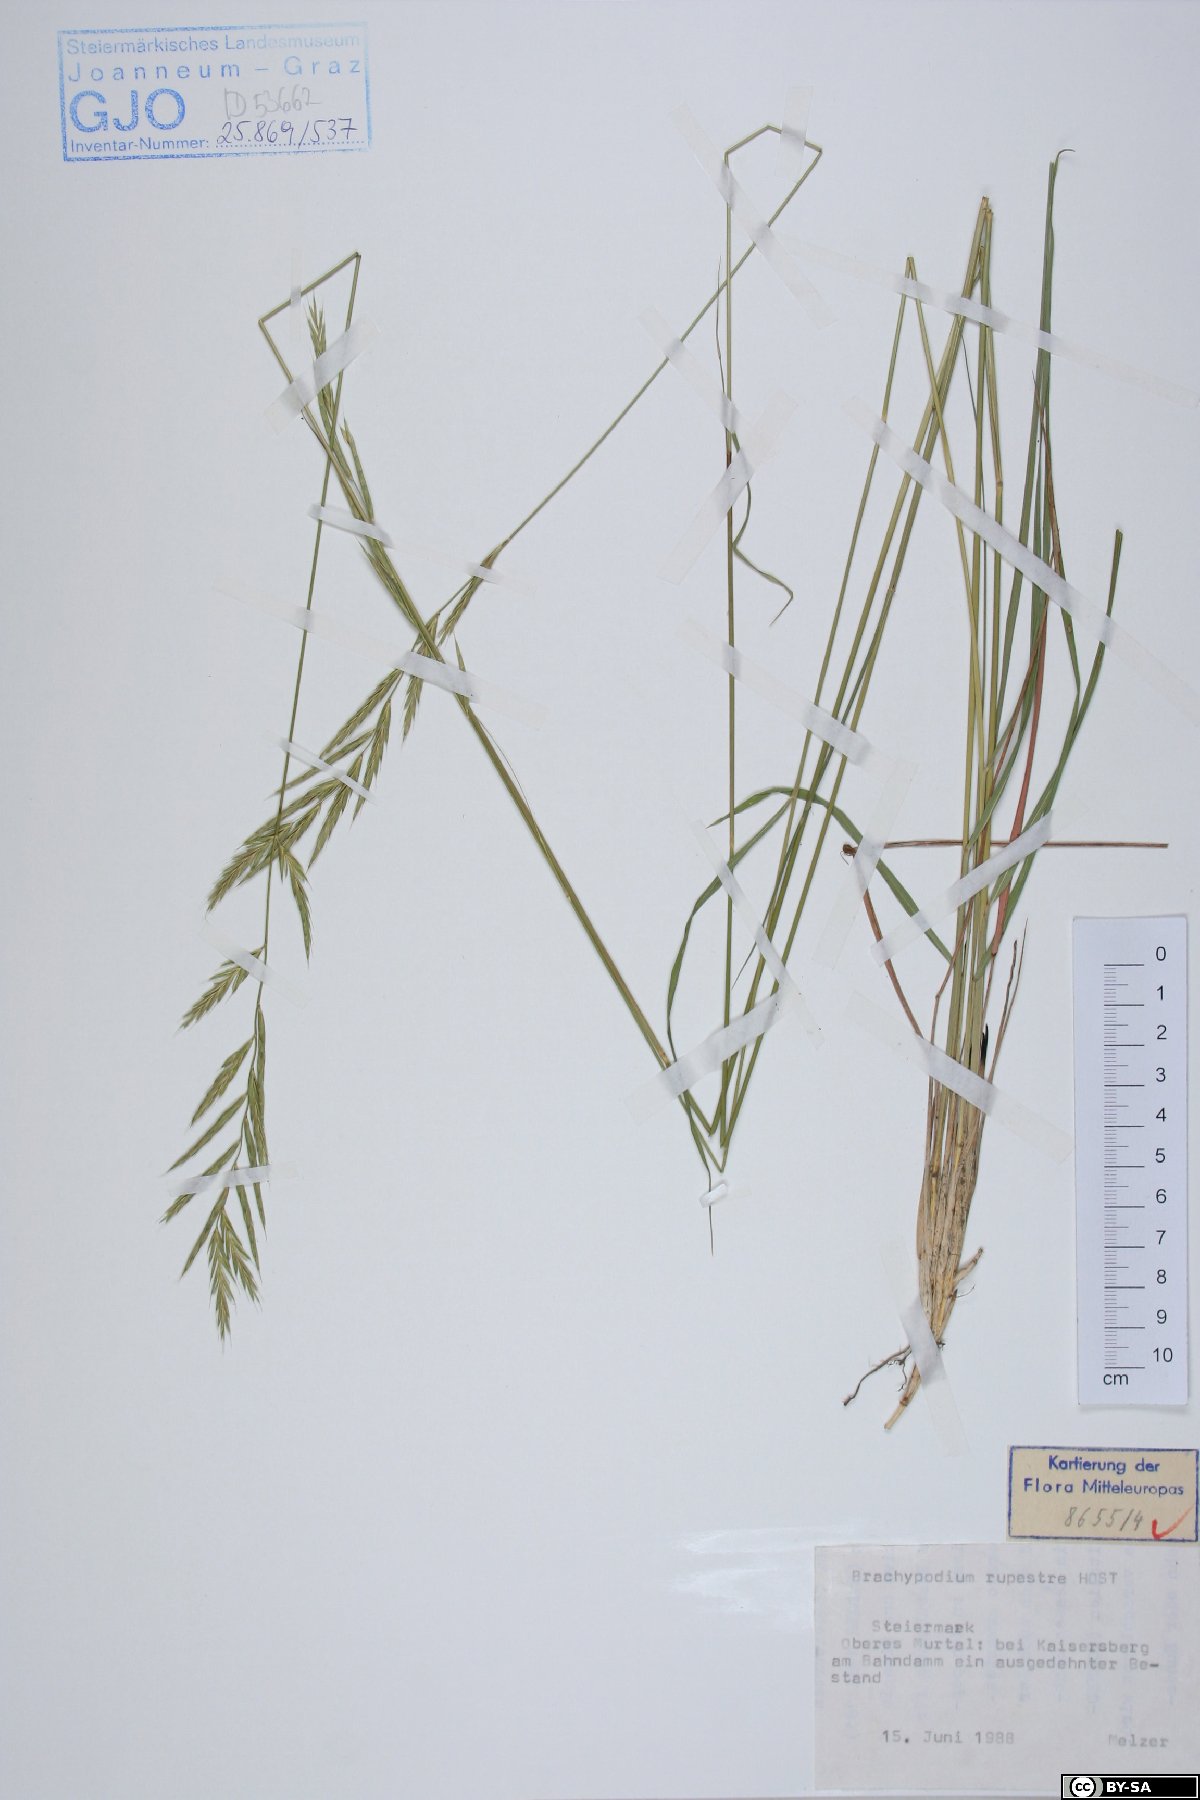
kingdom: Plantae
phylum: Tracheophyta
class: Liliopsida
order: Poales
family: Poaceae
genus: Brachypodium
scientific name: Brachypodium pinnatum
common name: Tor grass
